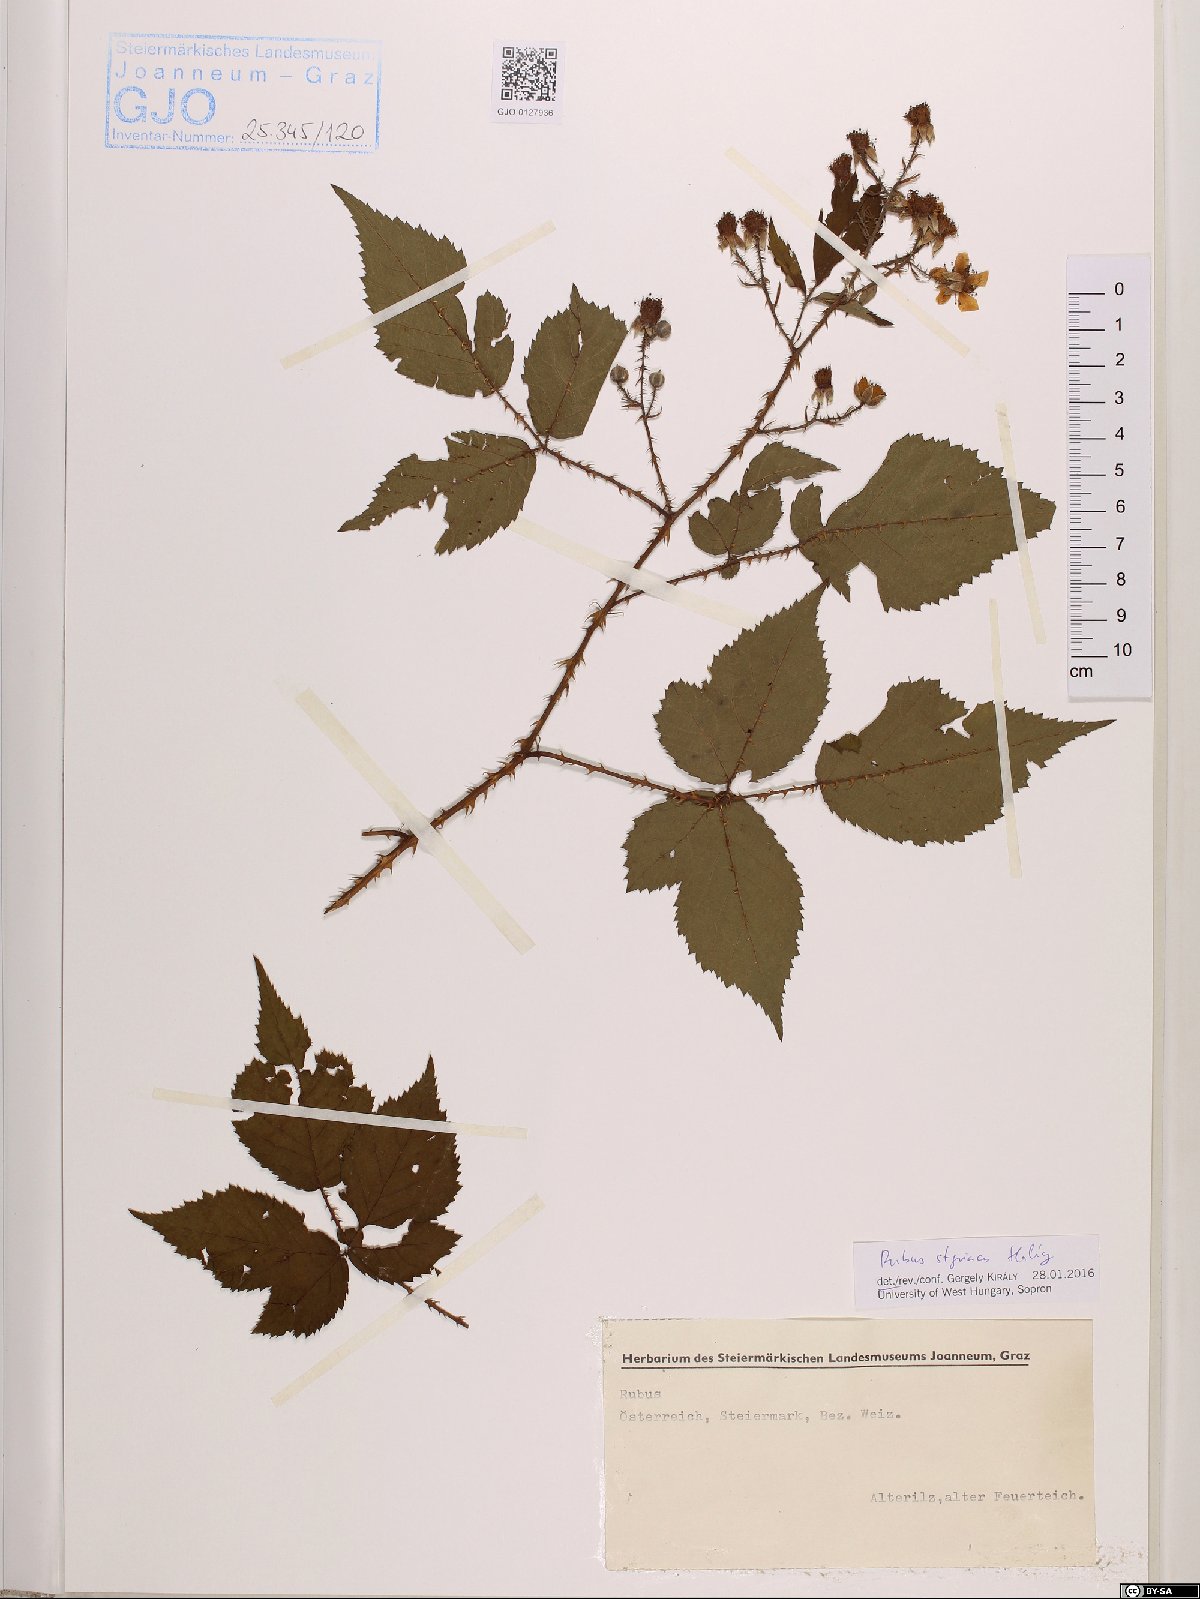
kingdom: Plantae
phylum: Tracheophyta
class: Magnoliopsida
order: Rosales
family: Rosaceae
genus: Rubus
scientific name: Rubus styriacus
